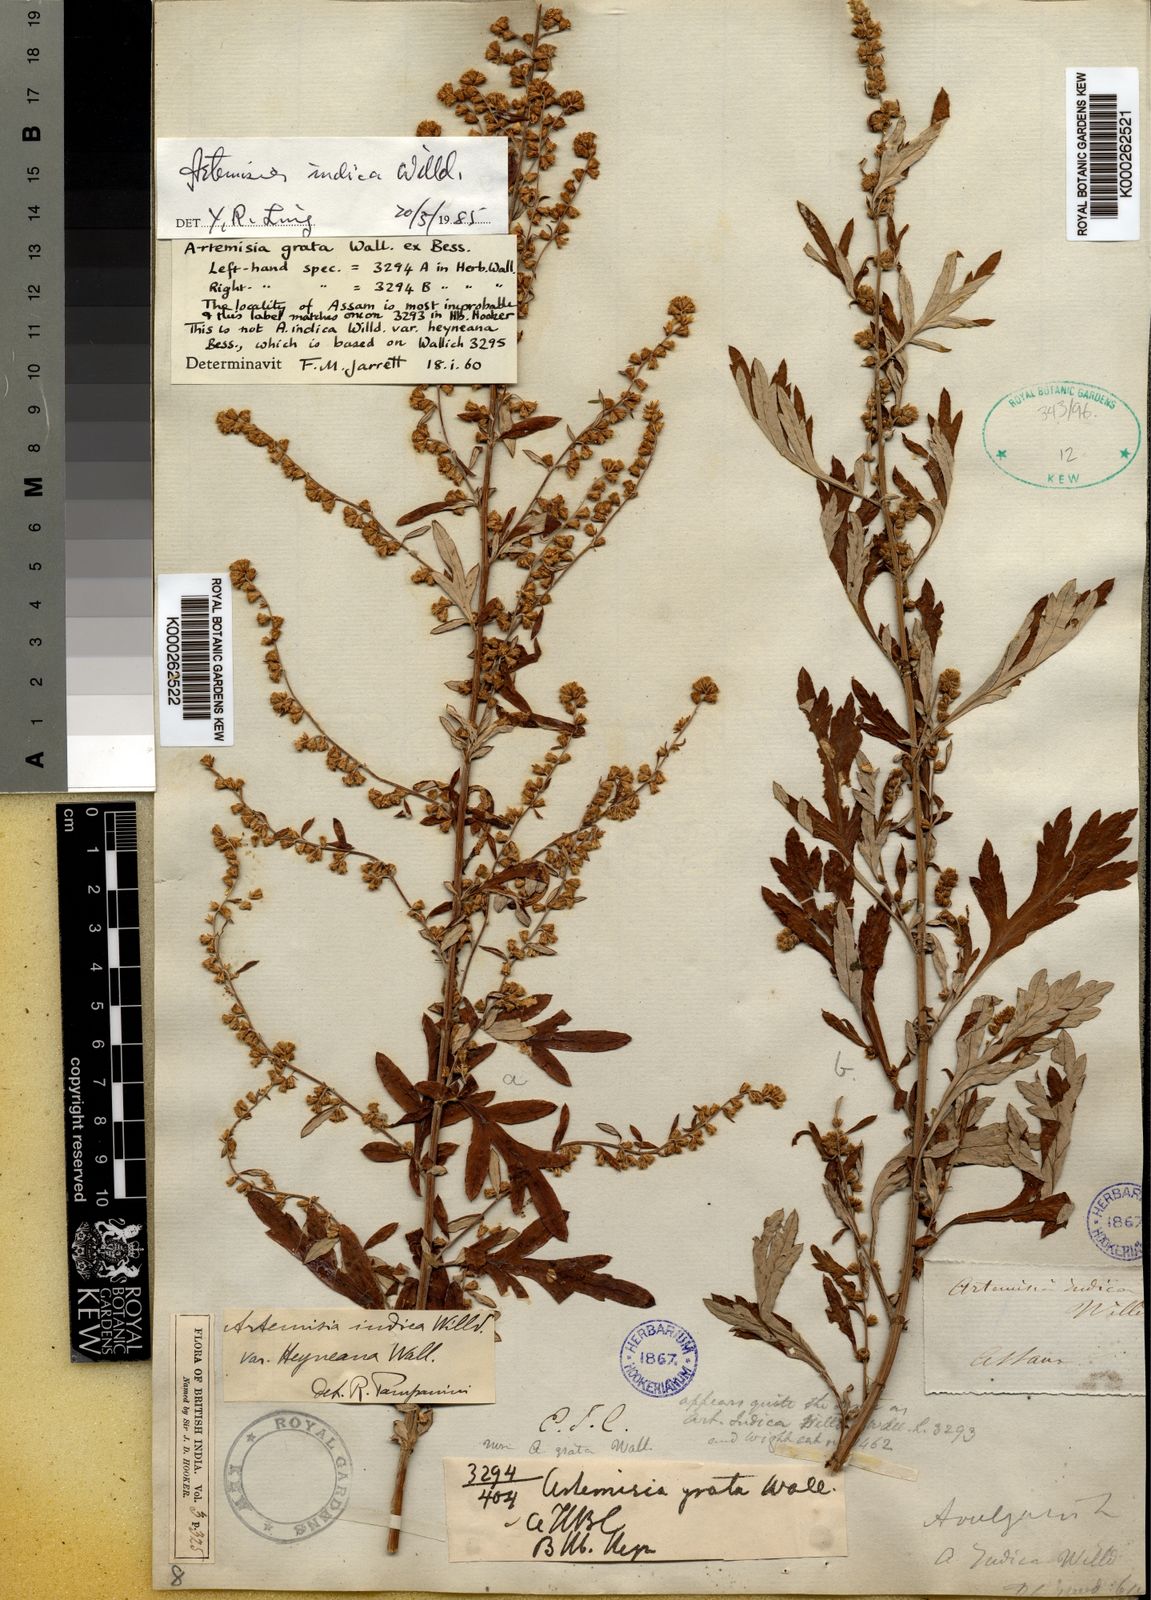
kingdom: Plantae
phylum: Tracheophyta
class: Magnoliopsida
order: Asterales
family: Asteraceae
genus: Artemisia
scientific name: Artemisia indica
